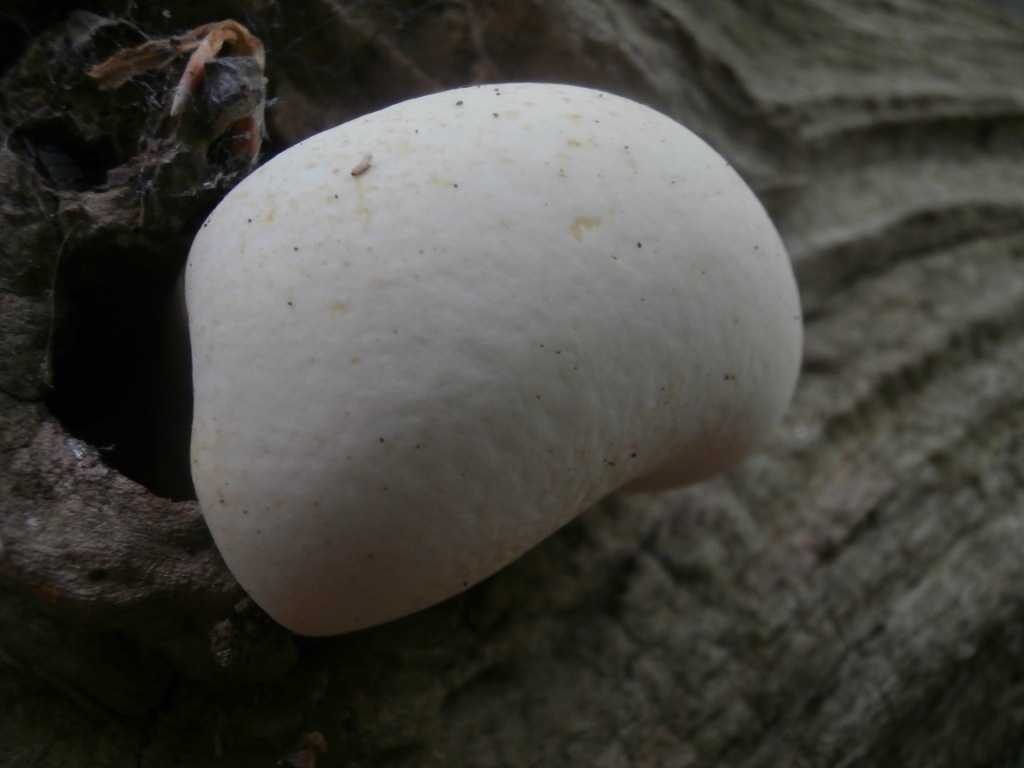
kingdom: Fungi
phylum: Basidiomycota
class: Agaricomycetes
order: Polyporales
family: Fomitopsidaceae
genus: Buglossoporus
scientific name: Buglossoporus quercinus
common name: egetunge
